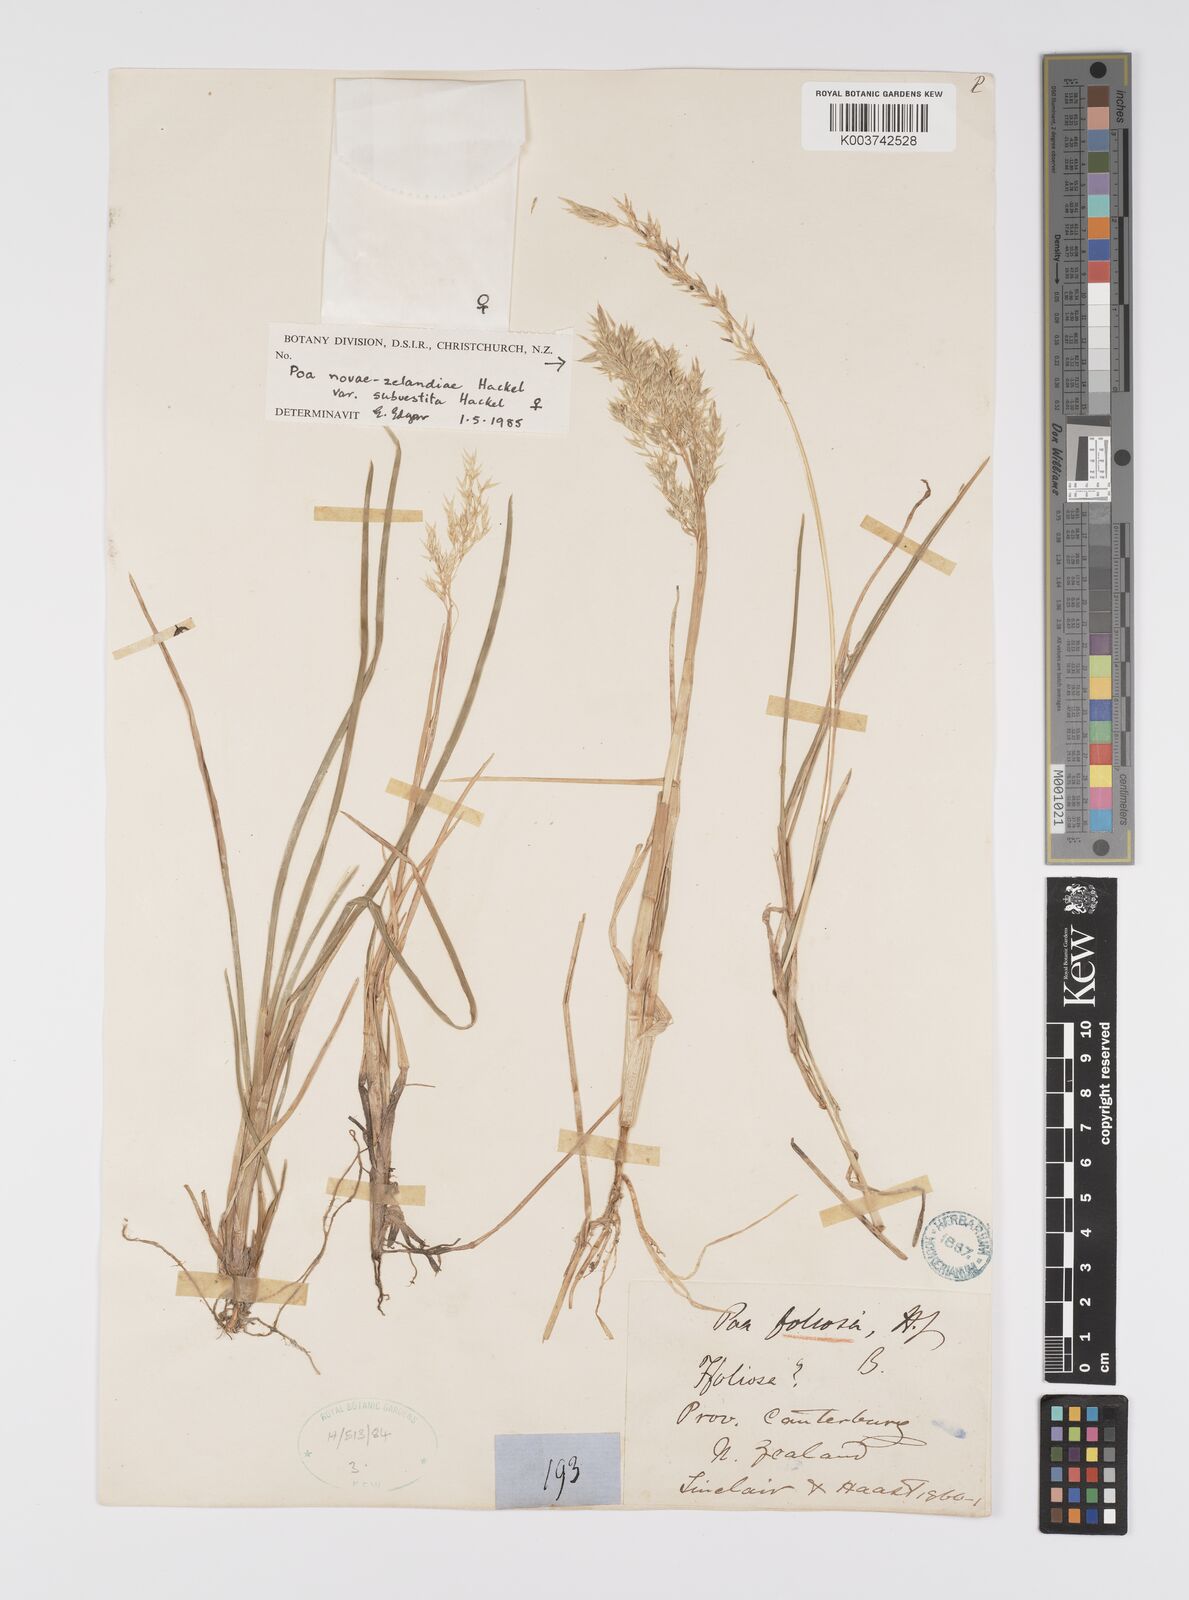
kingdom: Plantae
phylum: Tracheophyta
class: Liliopsida
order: Poales
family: Poaceae
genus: Poa
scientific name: Poa novae-zelandiae
